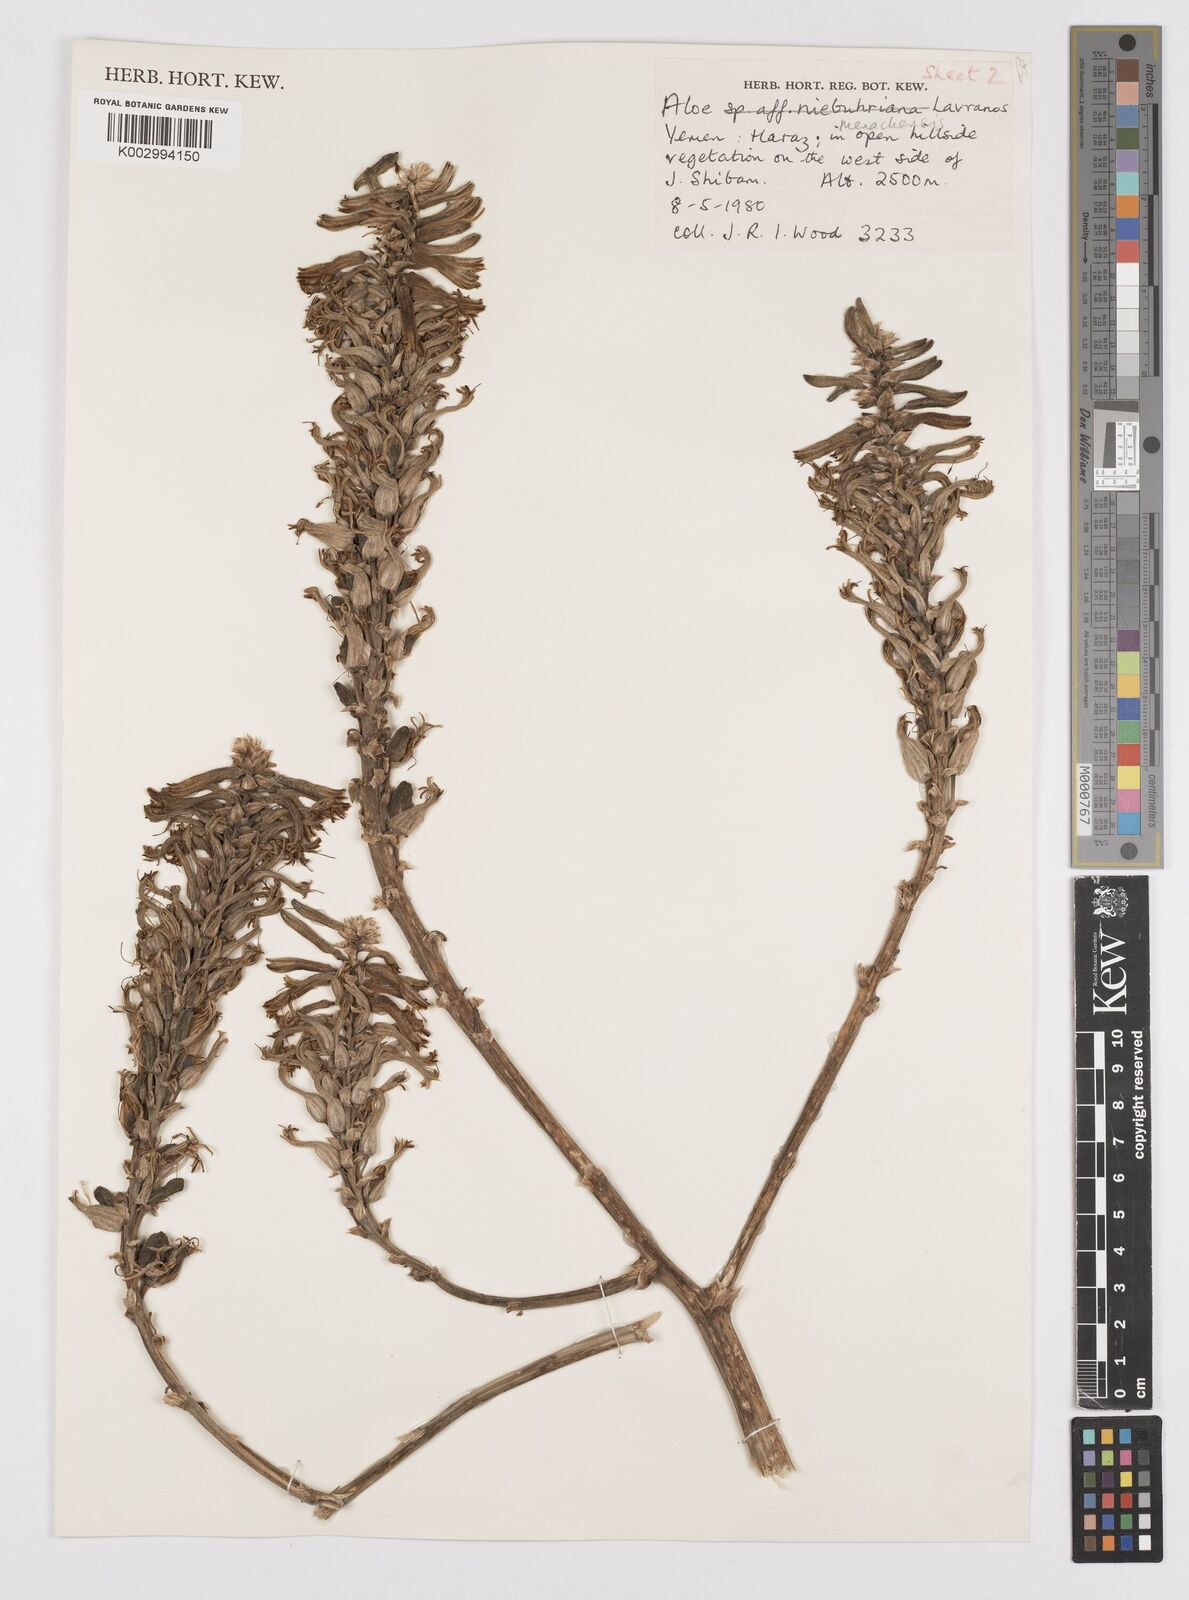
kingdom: Plantae
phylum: Tracheophyta
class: Liliopsida
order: Asparagales
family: Asphodelaceae
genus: Aloe
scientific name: Aloe menachensis
